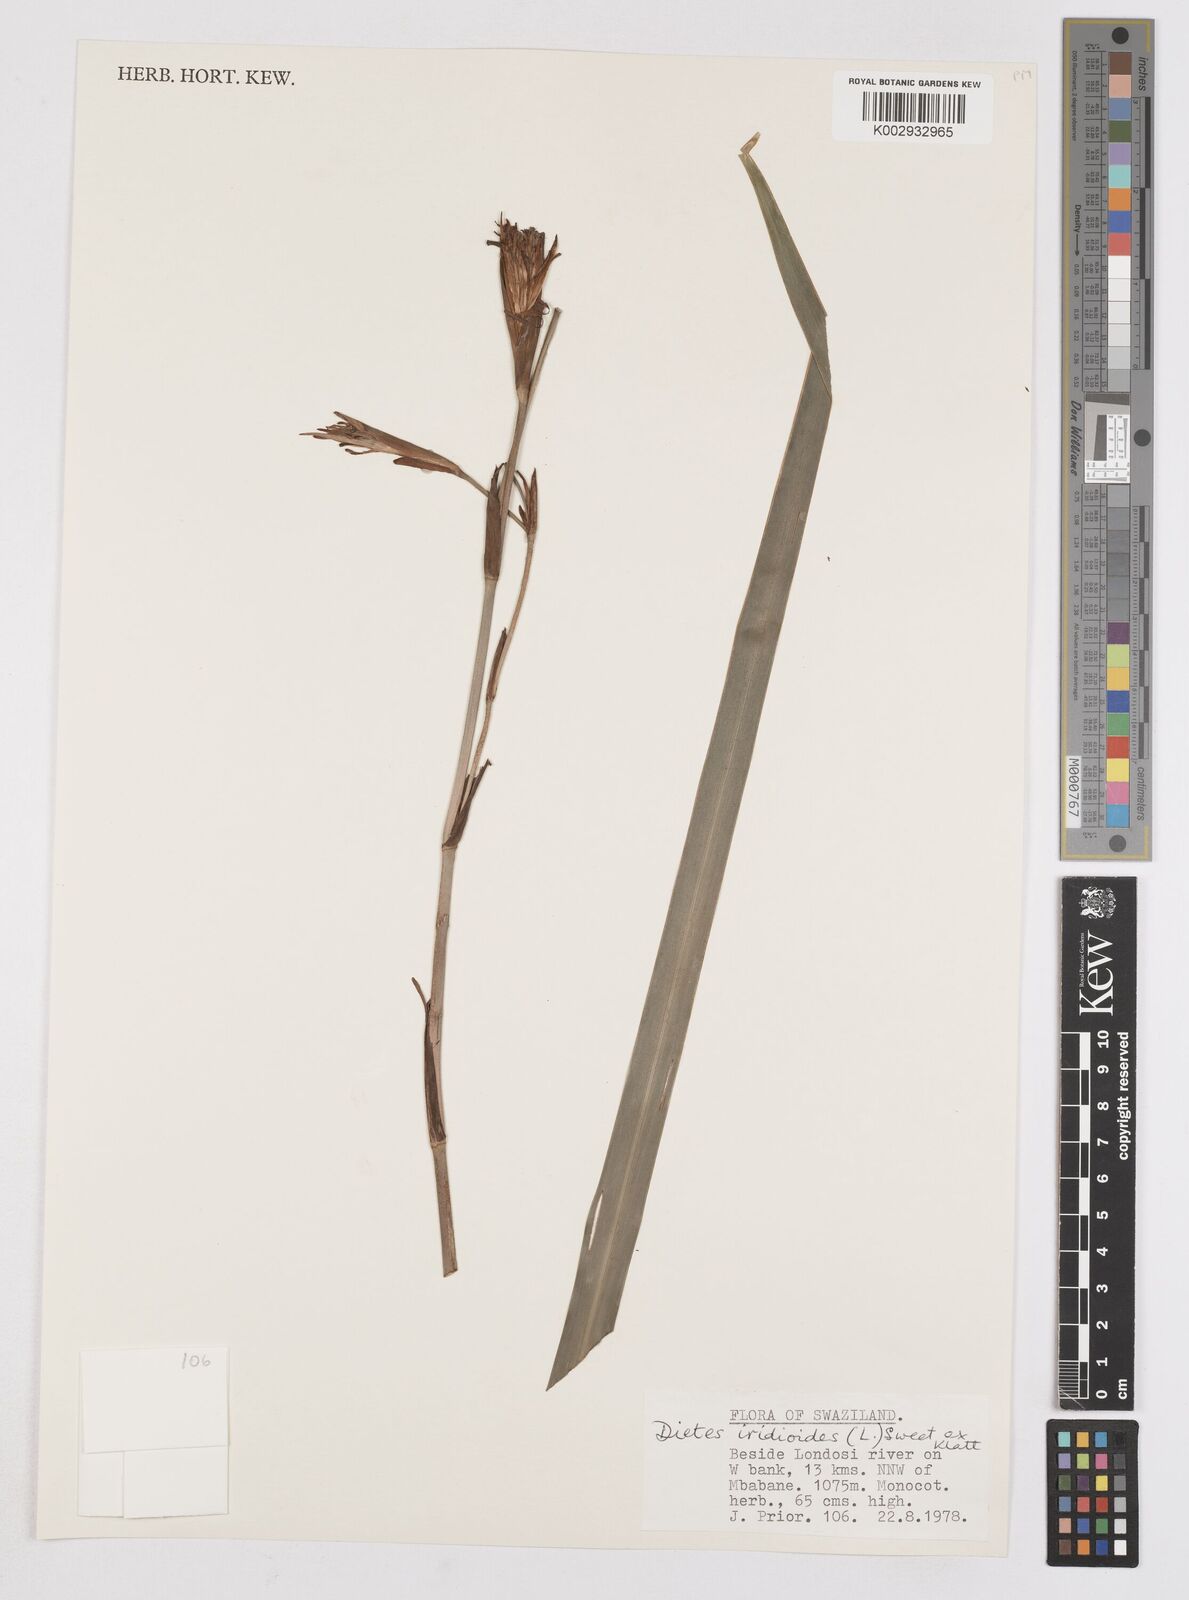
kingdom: Plantae
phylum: Tracheophyta
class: Liliopsida
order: Asparagales
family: Iridaceae
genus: Dietes
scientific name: Dietes iridioides
